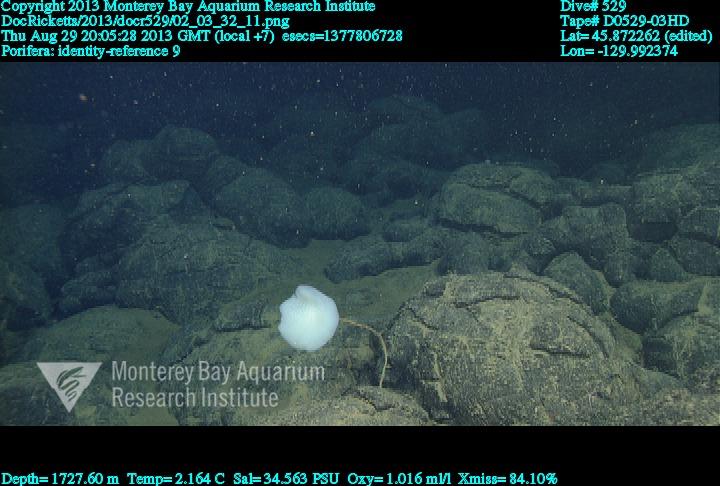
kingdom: Animalia
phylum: Porifera
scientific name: Porifera
